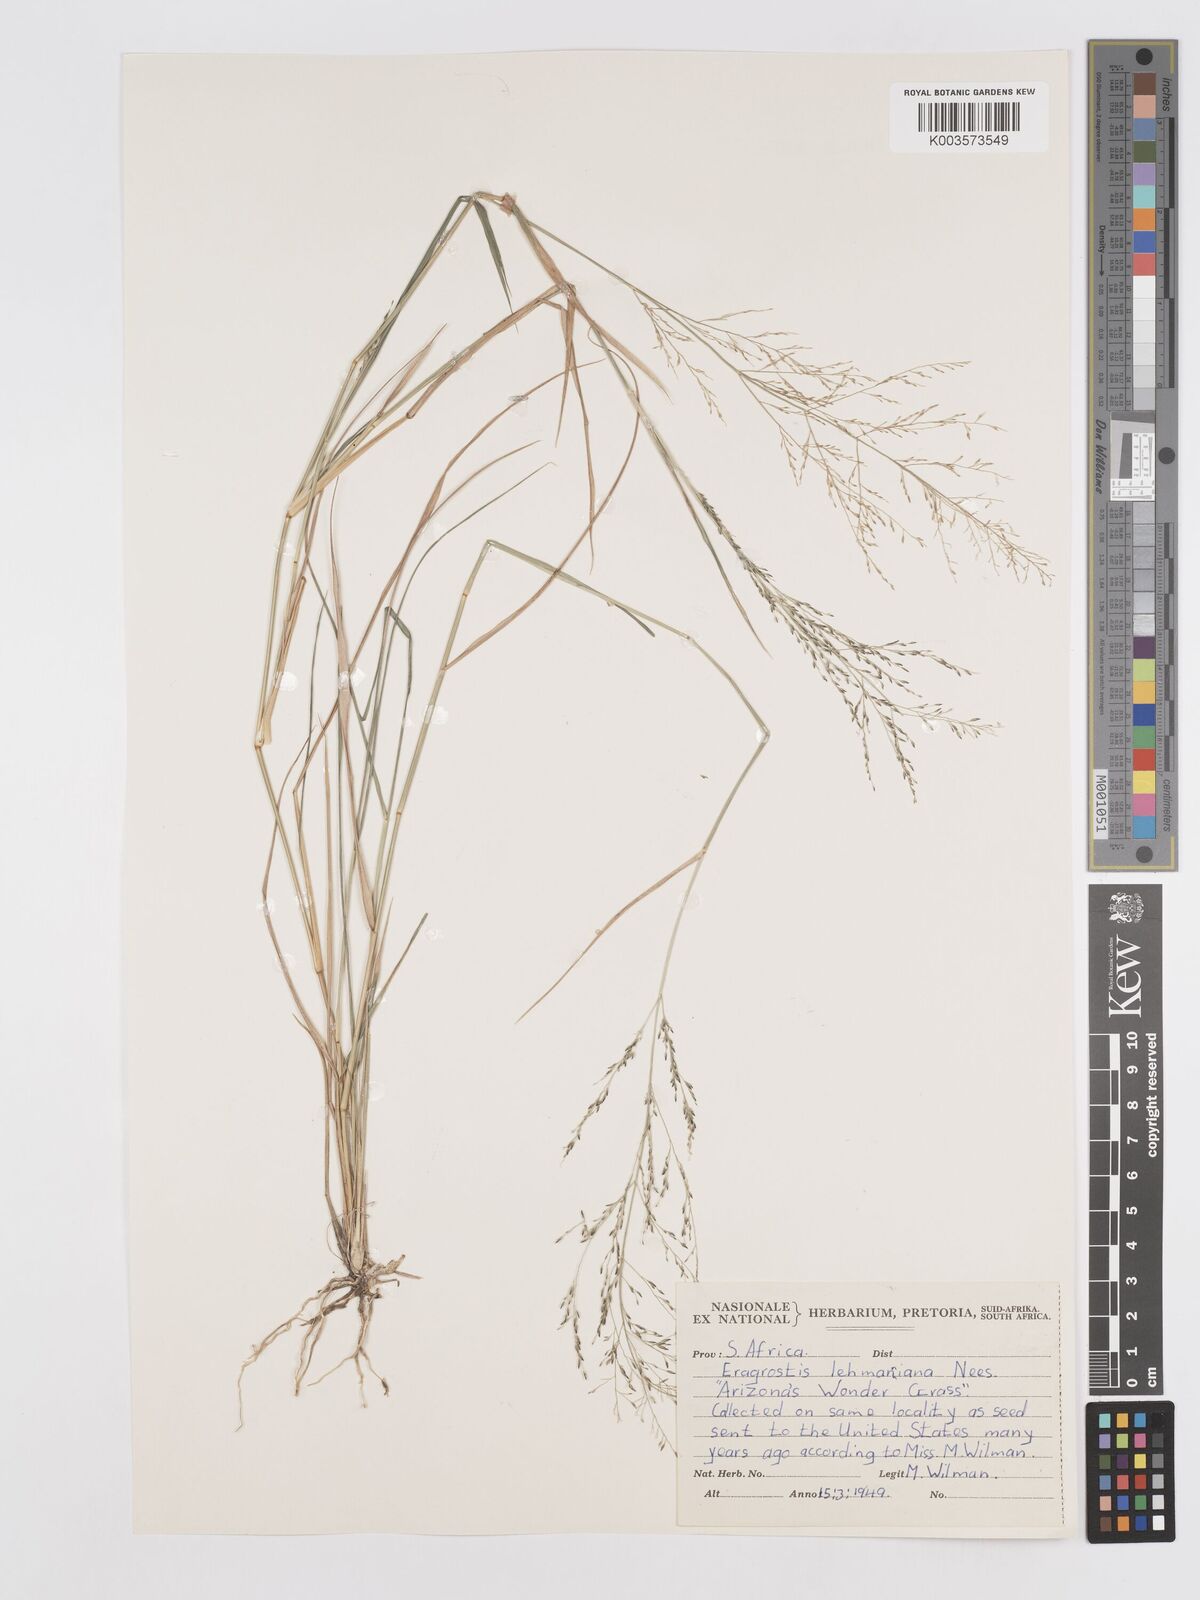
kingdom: Plantae
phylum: Tracheophyta
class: Liliopsida
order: Poales
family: Poaceae
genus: Eragrostis
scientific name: Eragrostis lehmanniana
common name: Lehmann lovegrass
